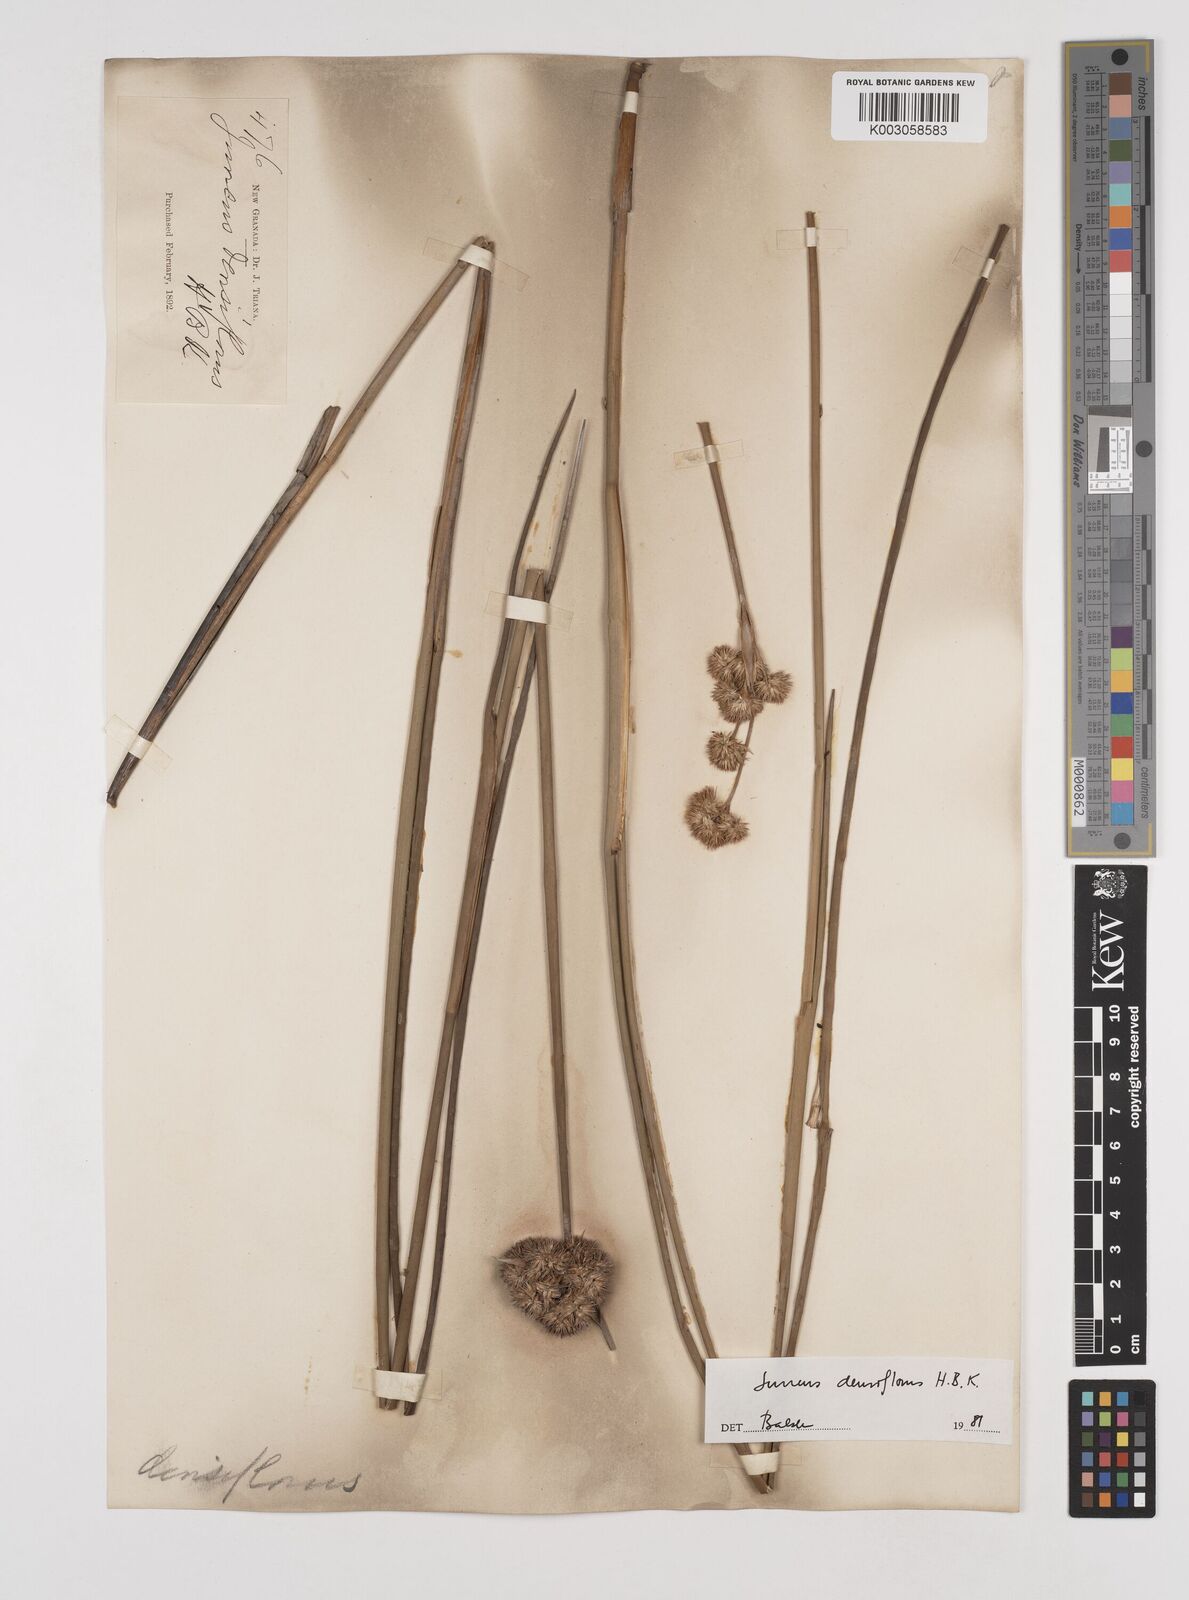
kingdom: Plantae
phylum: Tracheophyta
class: Liliopsida
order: Poales
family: Juncaceae
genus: Juncus
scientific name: Juncus
